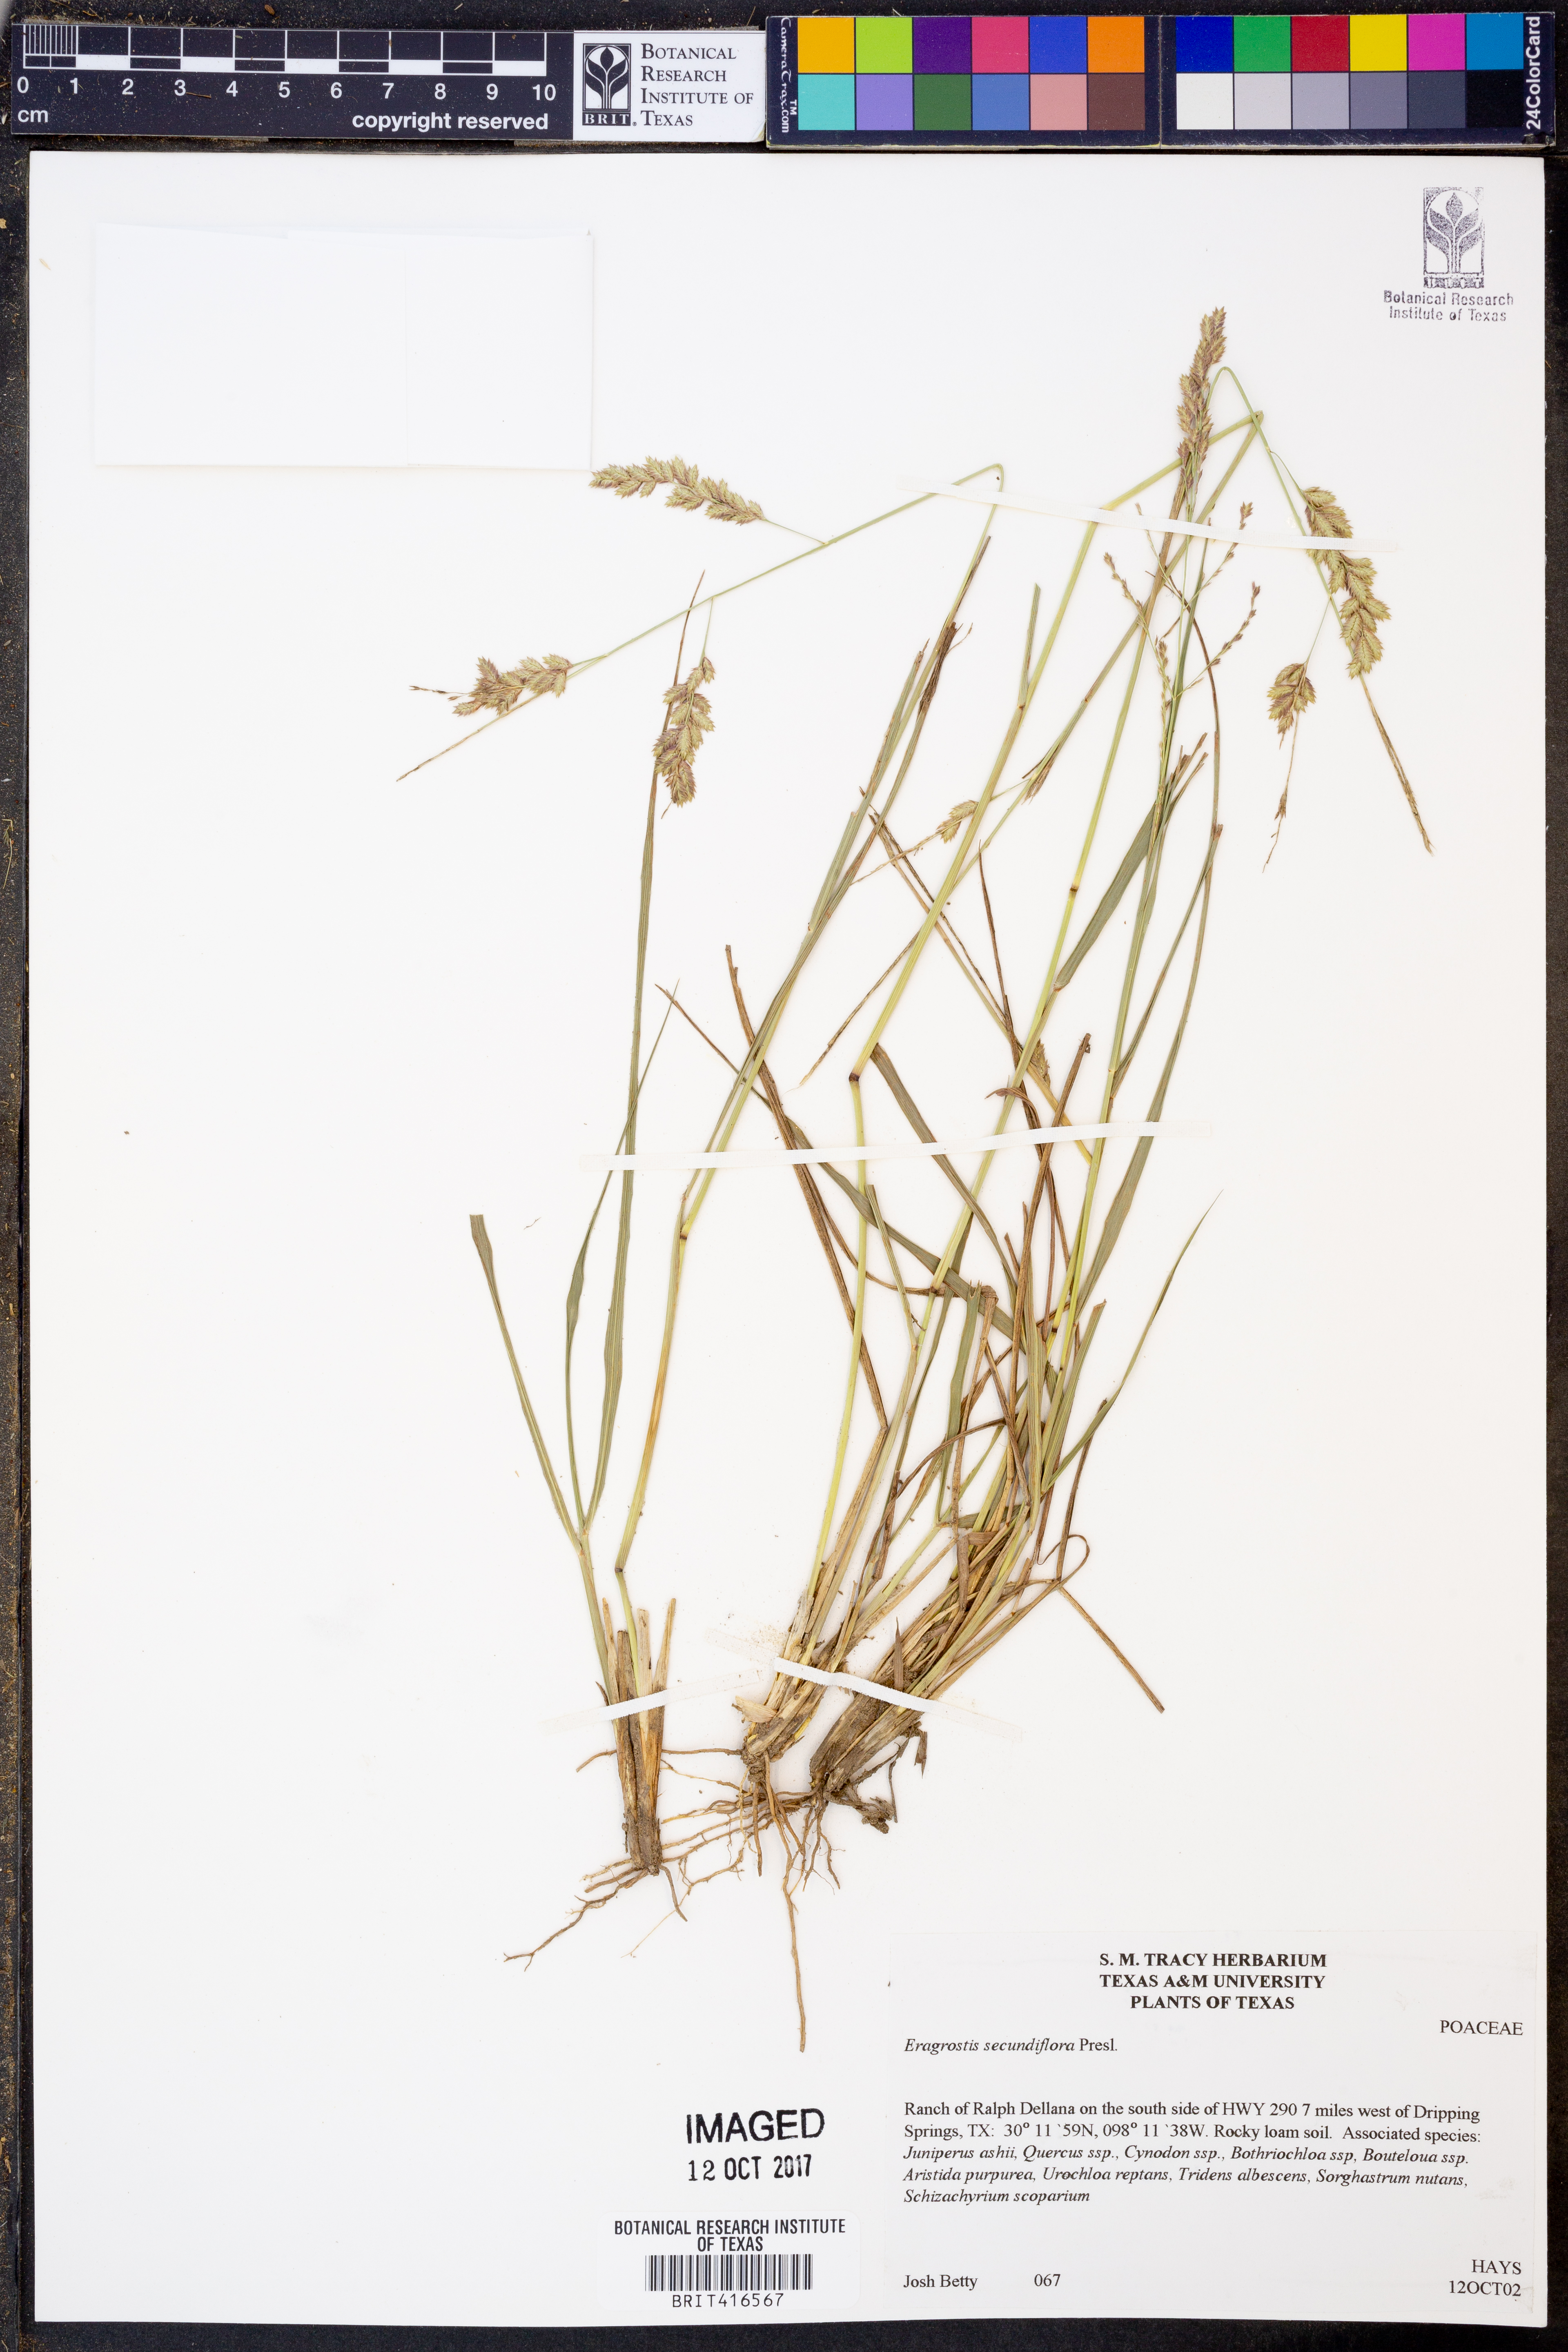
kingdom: Plantae
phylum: Tracheophyta
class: Liliopsida
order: Poales
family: Poaceae
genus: Eragrostis
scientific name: Eragrostis secundiflora
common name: Red love grass
